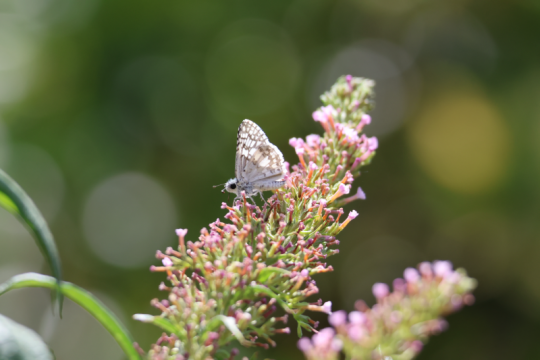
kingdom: Animalia
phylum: Arthropoda
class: Insecta
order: Lepidoptera
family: Hesperiidae
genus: Pyrgus
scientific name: Pyrgus communis
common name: Common Checkered-Skipper
